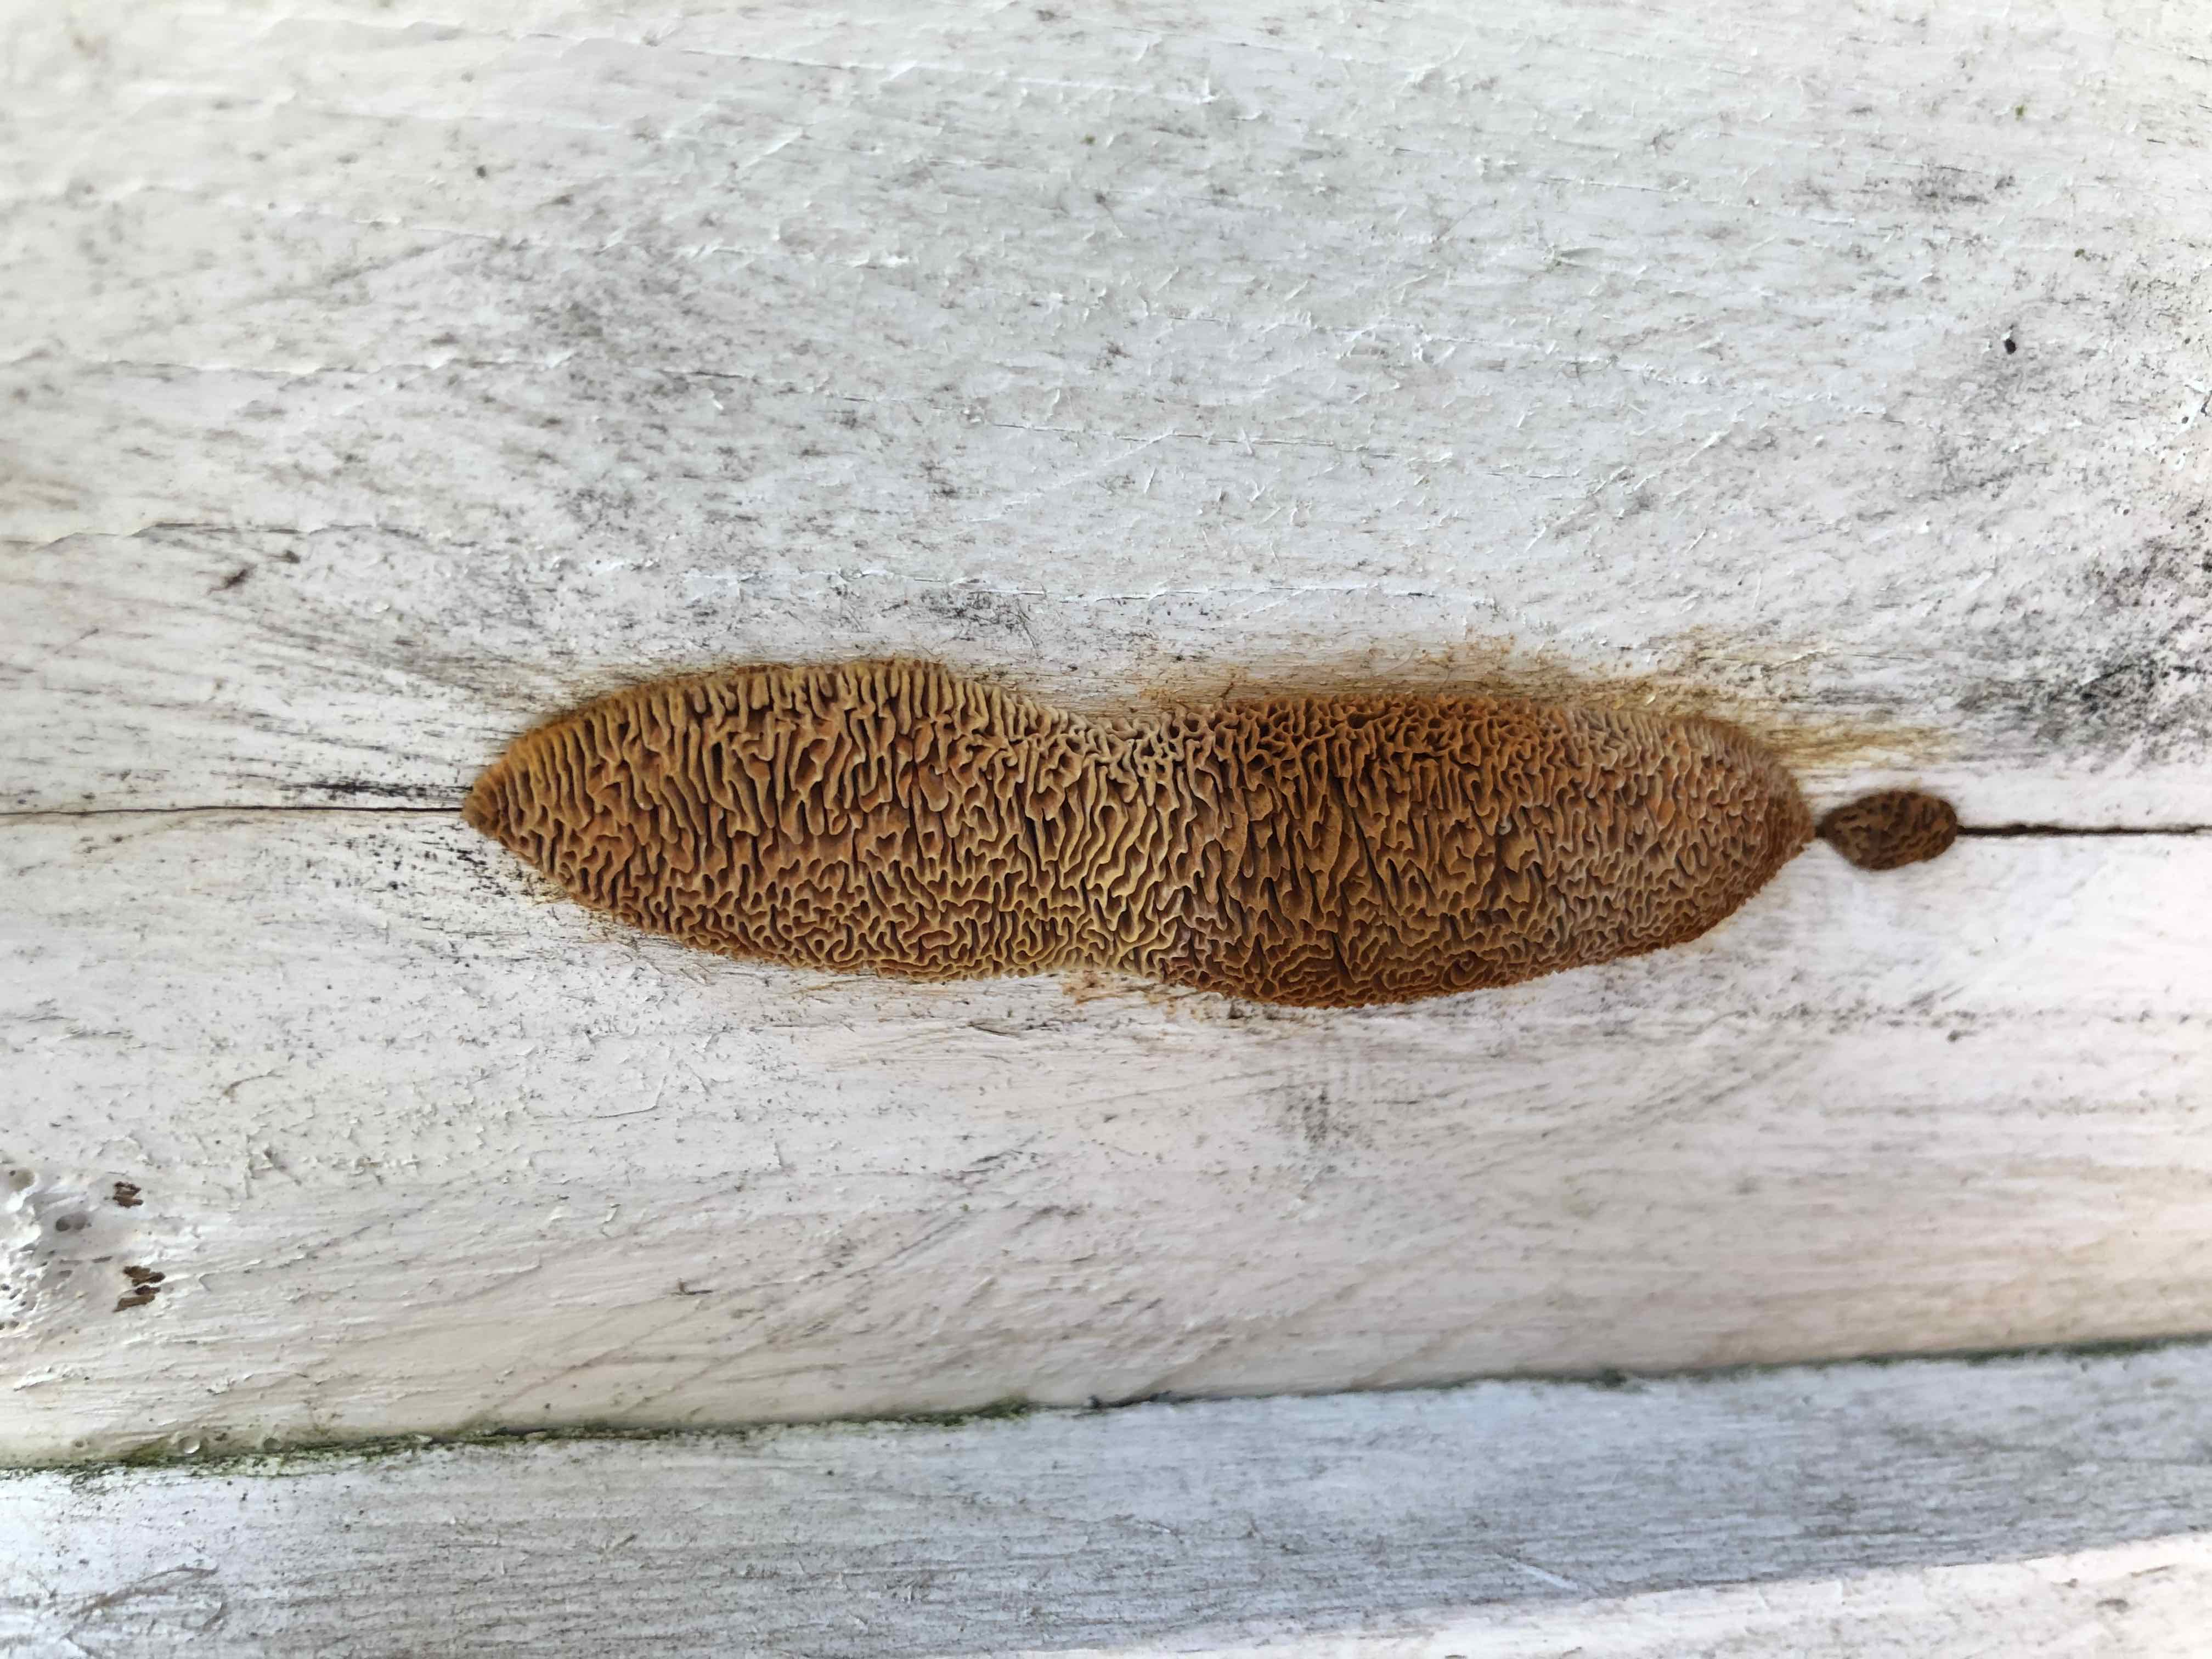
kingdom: Fungi
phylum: Basidiomycota
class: Agaricomycetes
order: Gloeophyllales
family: Gloeophyllaceae
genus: Gloeophyllum
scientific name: Gloeophyllum sepiarium
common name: fyrre-korkhat
